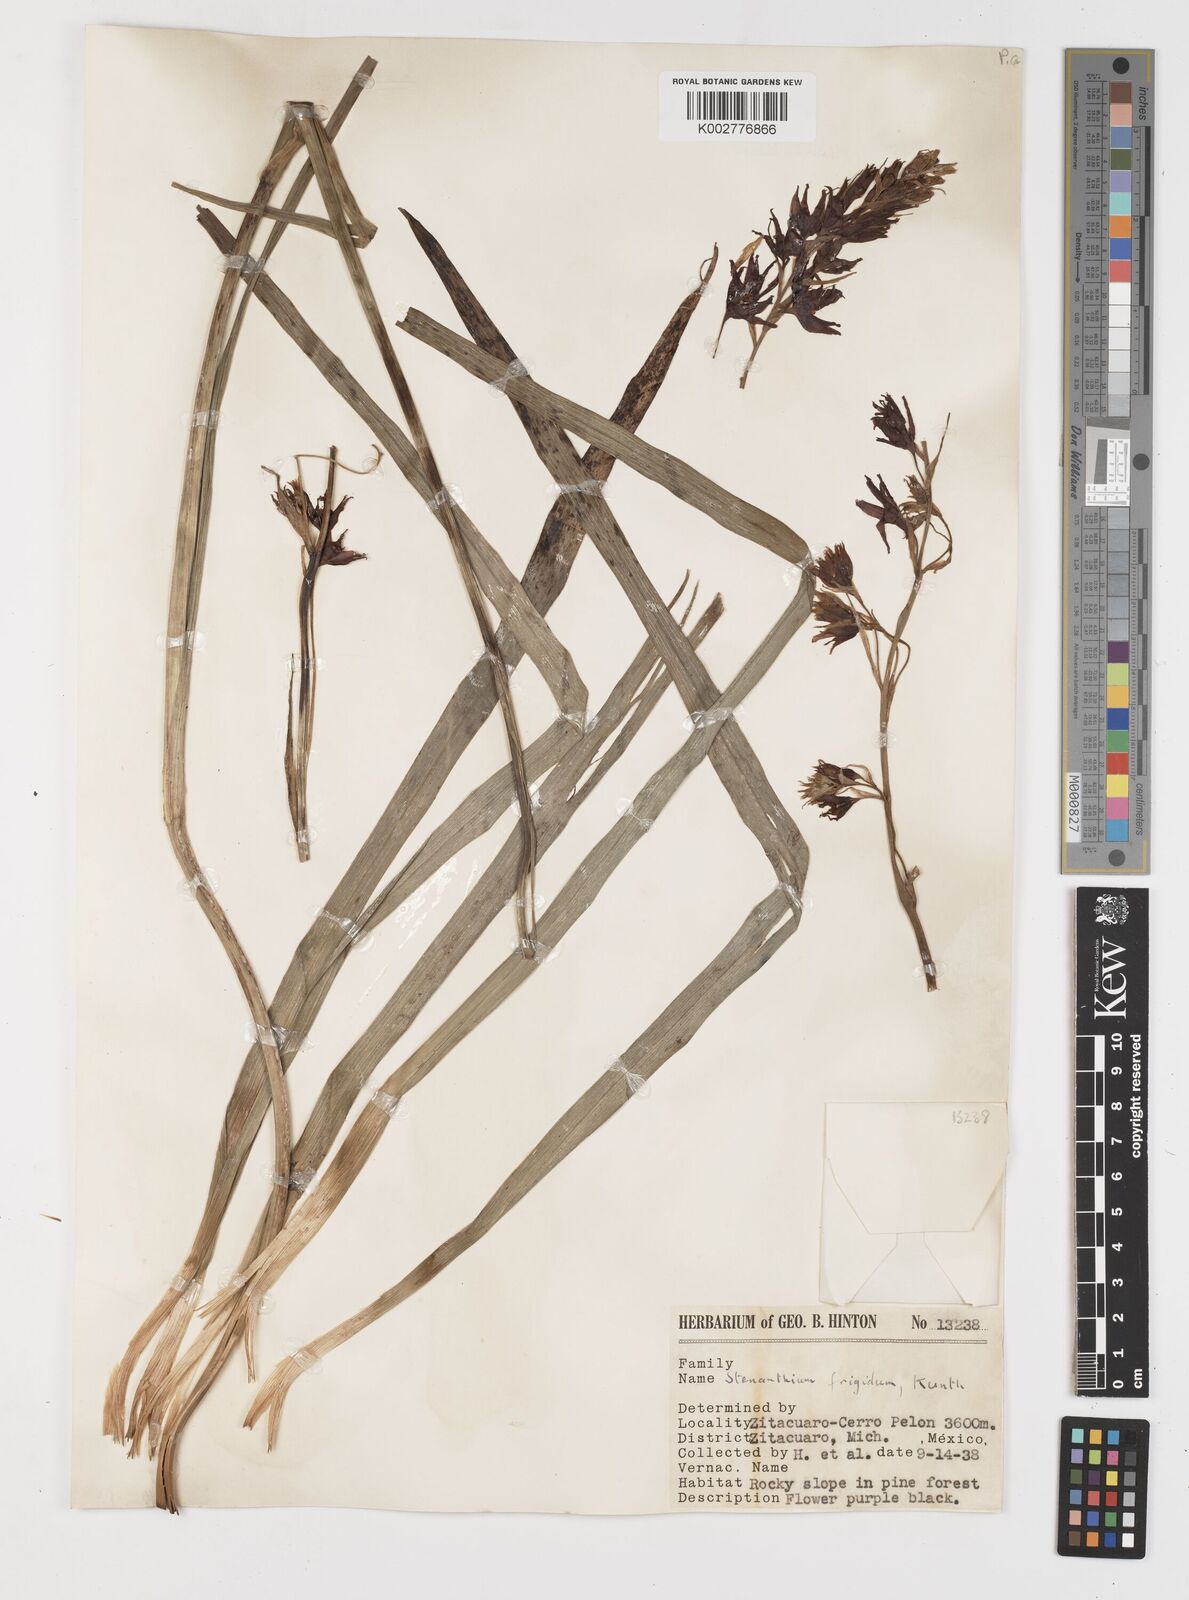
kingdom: Plantae
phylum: Tracheophyta
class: Liliopsida
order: Liliales
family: Melanthiaceae
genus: Anticlea
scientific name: Anticlea frigida
